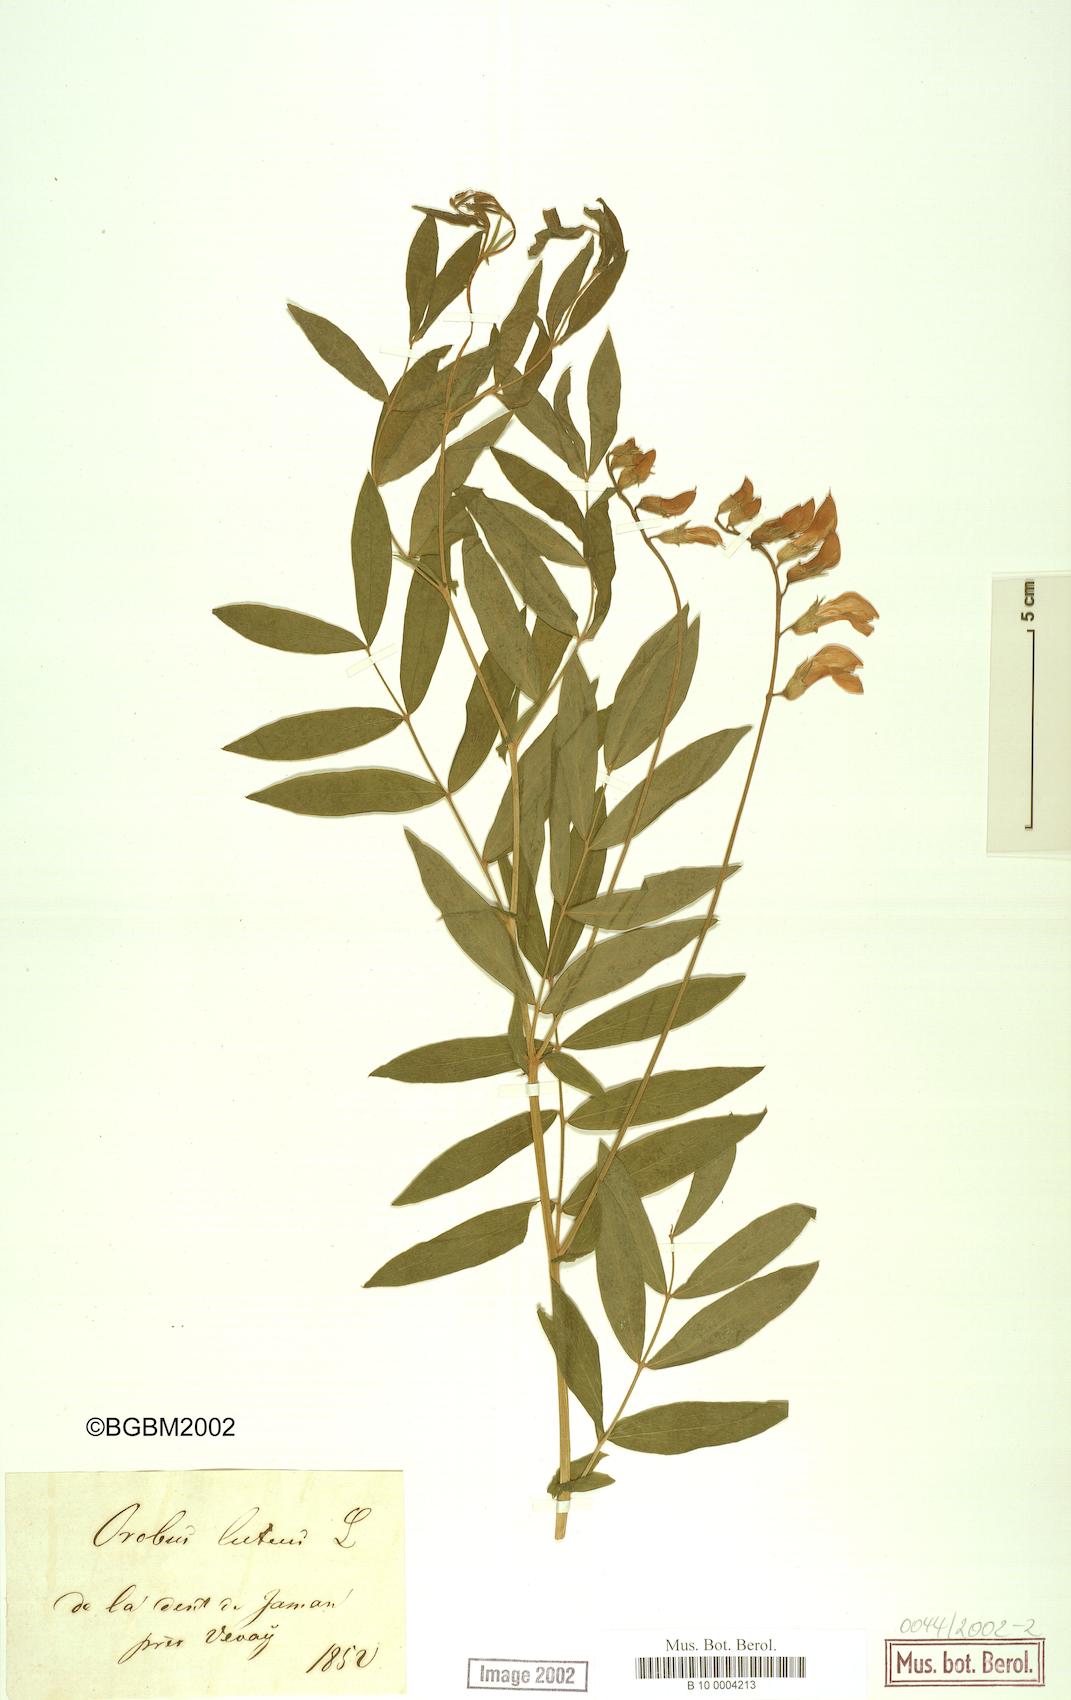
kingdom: Plantae
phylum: Tracheophyta
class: Magnoliopsida
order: Fabales
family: Fabaceae
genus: Lathyrus
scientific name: Lathyrus annuus
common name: Fodder pea
